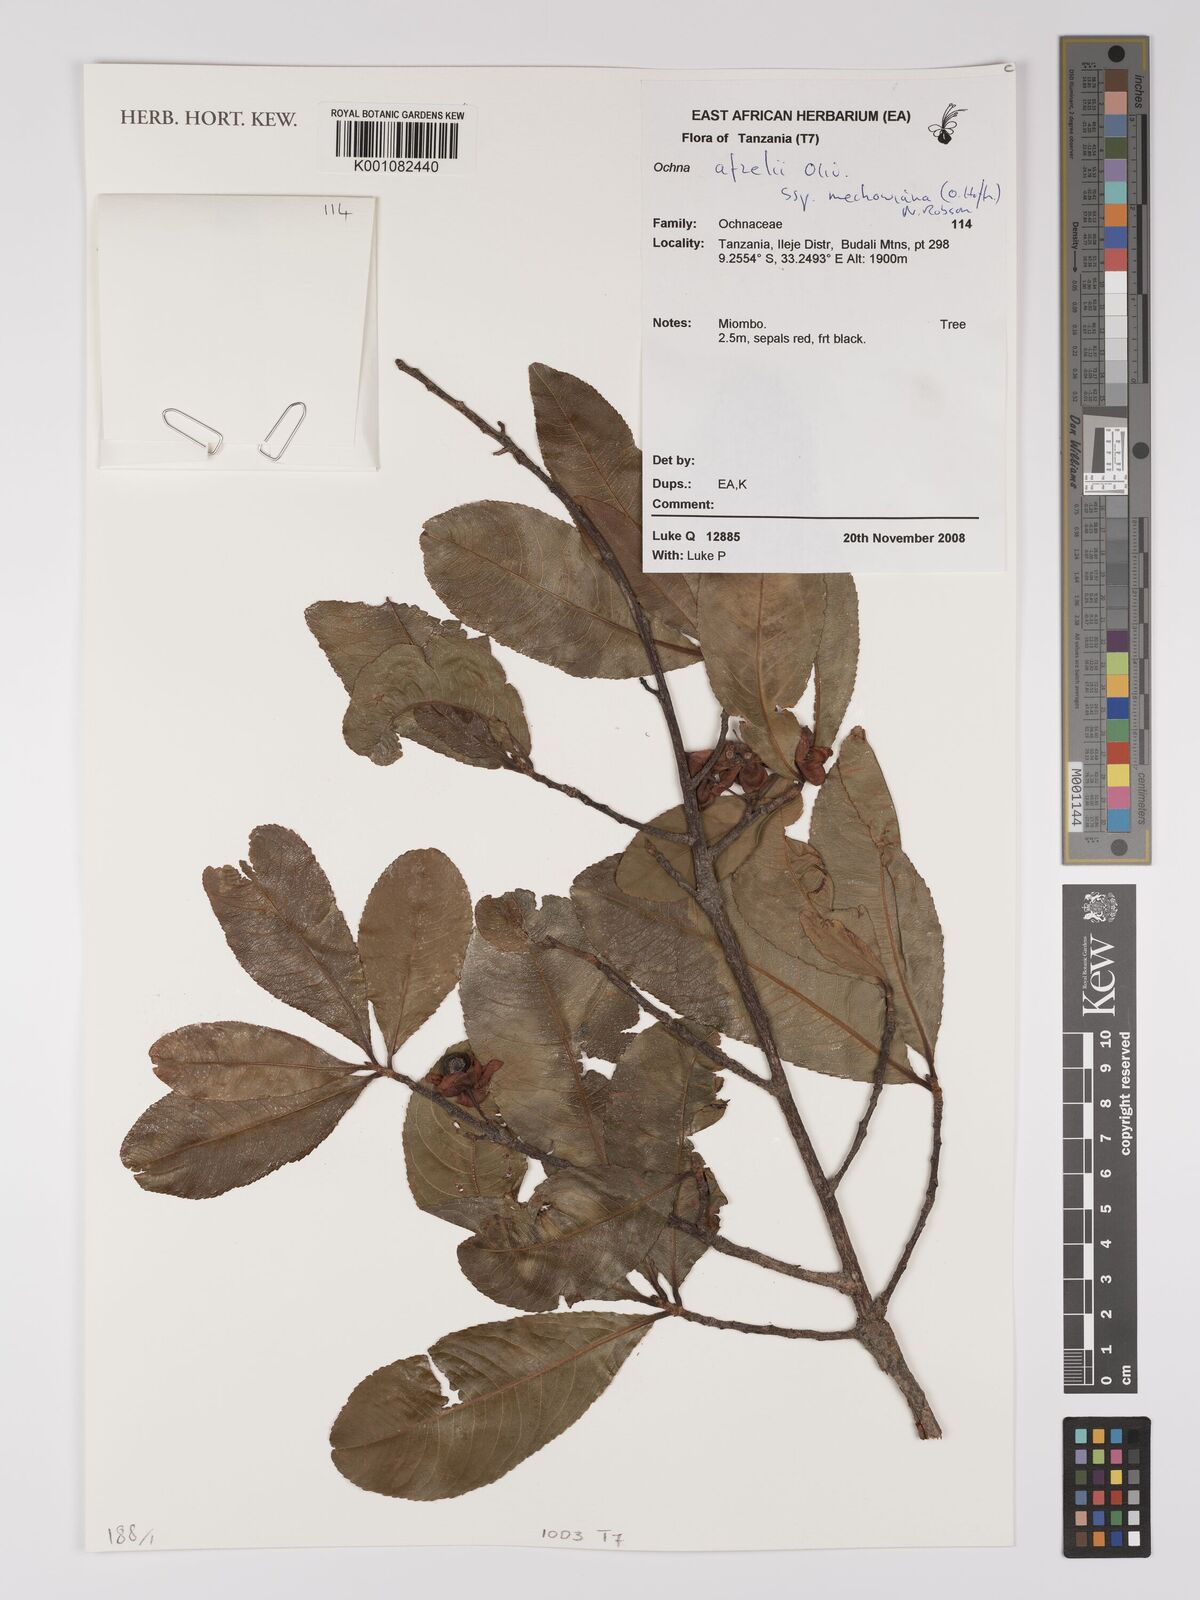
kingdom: Plantae
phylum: Tracheophyta
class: Magnoliopsida
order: Malpighiales
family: Ochnaceae
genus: Ochna
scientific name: Ochna afzelii
